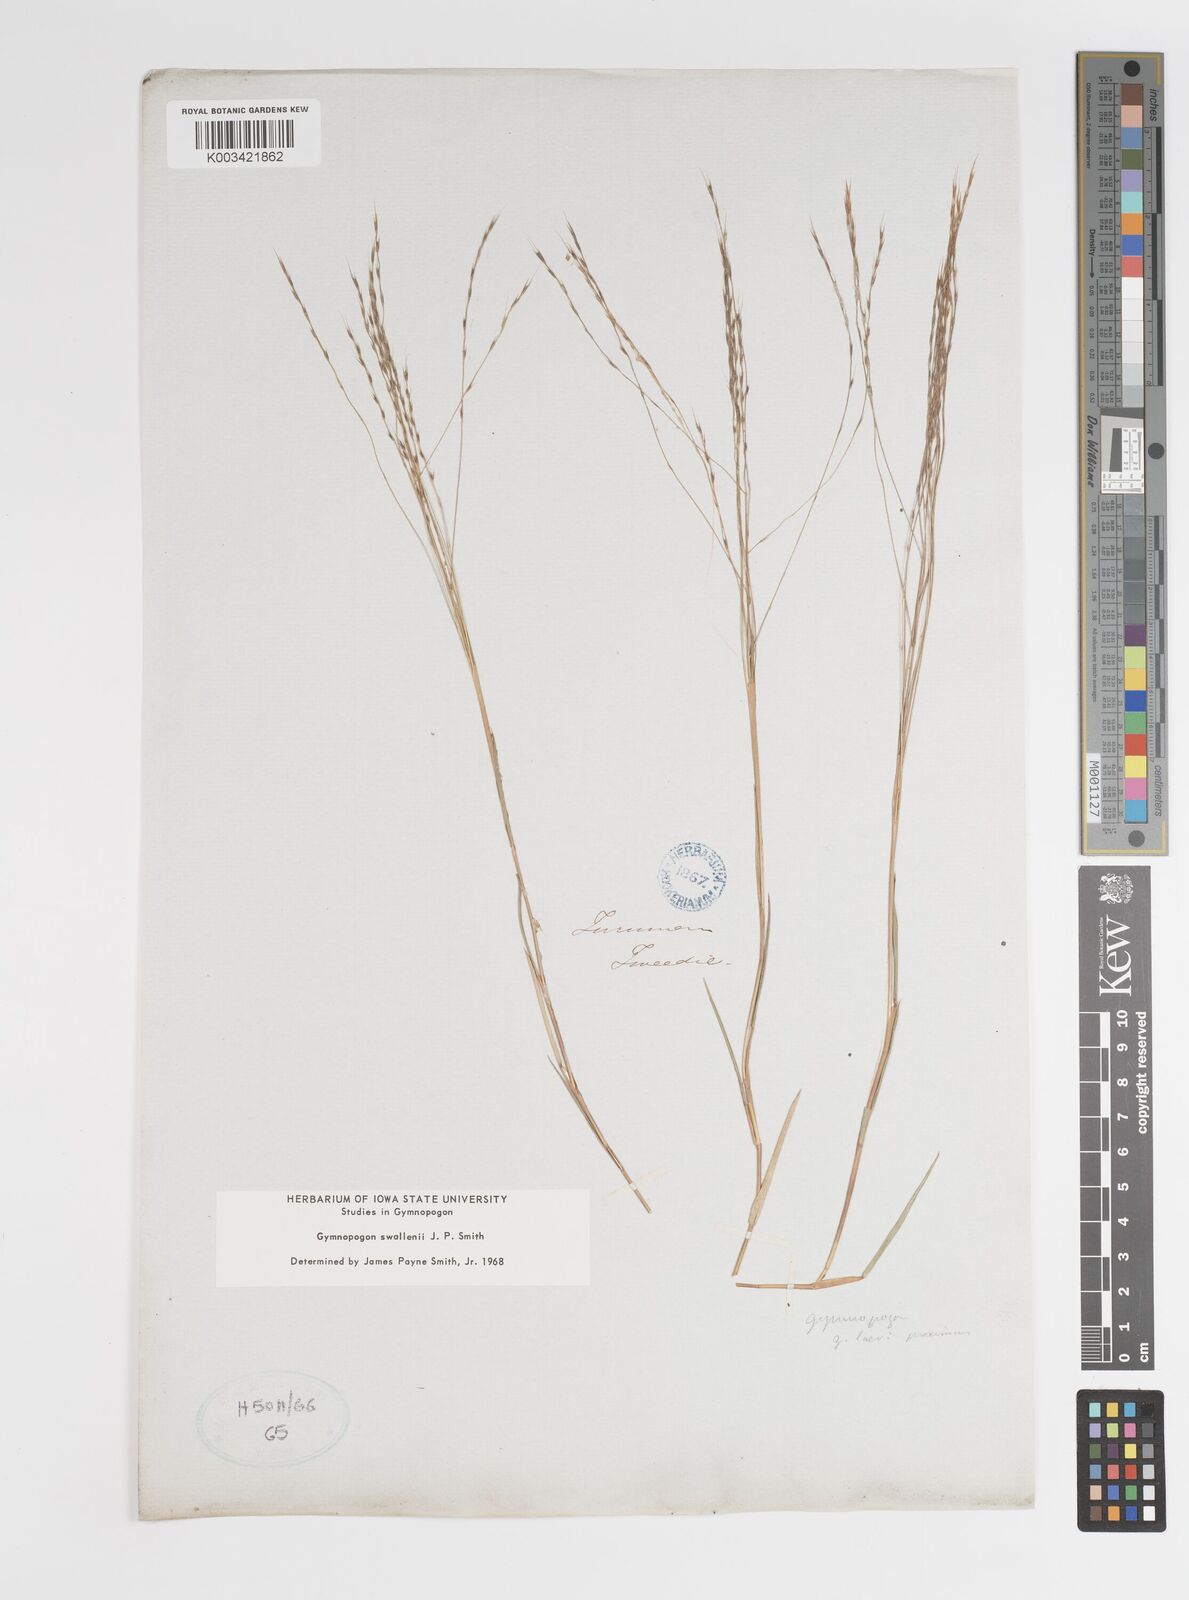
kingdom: Plantae
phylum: Tracheophyta
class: Liliopsida
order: Poales
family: Poaceae
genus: Gymnopogon
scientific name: Gymnopogon legrandii
